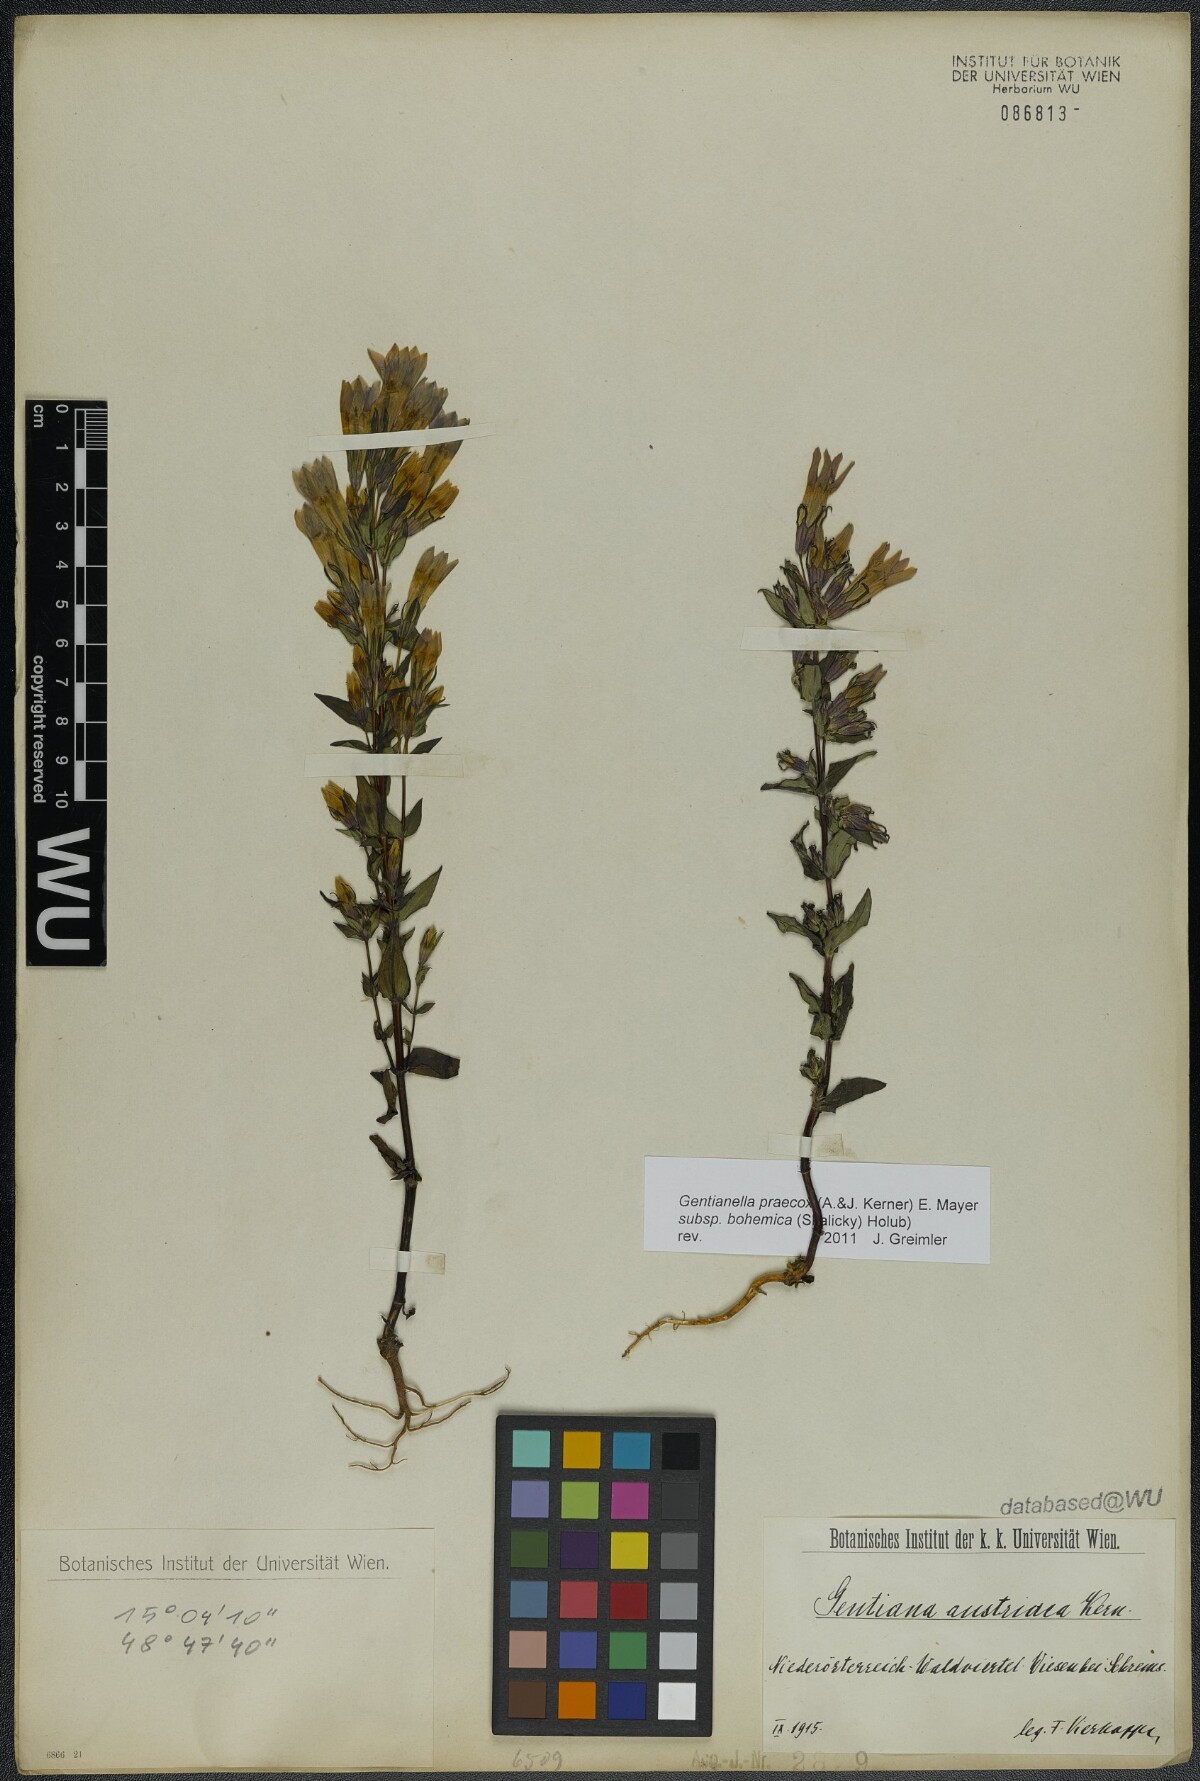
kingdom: Plantae
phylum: Tracheophyta
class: Magnoliopsida
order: Gentianales
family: Gentianaceae
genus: Gentianella
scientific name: Gentianella praecox
